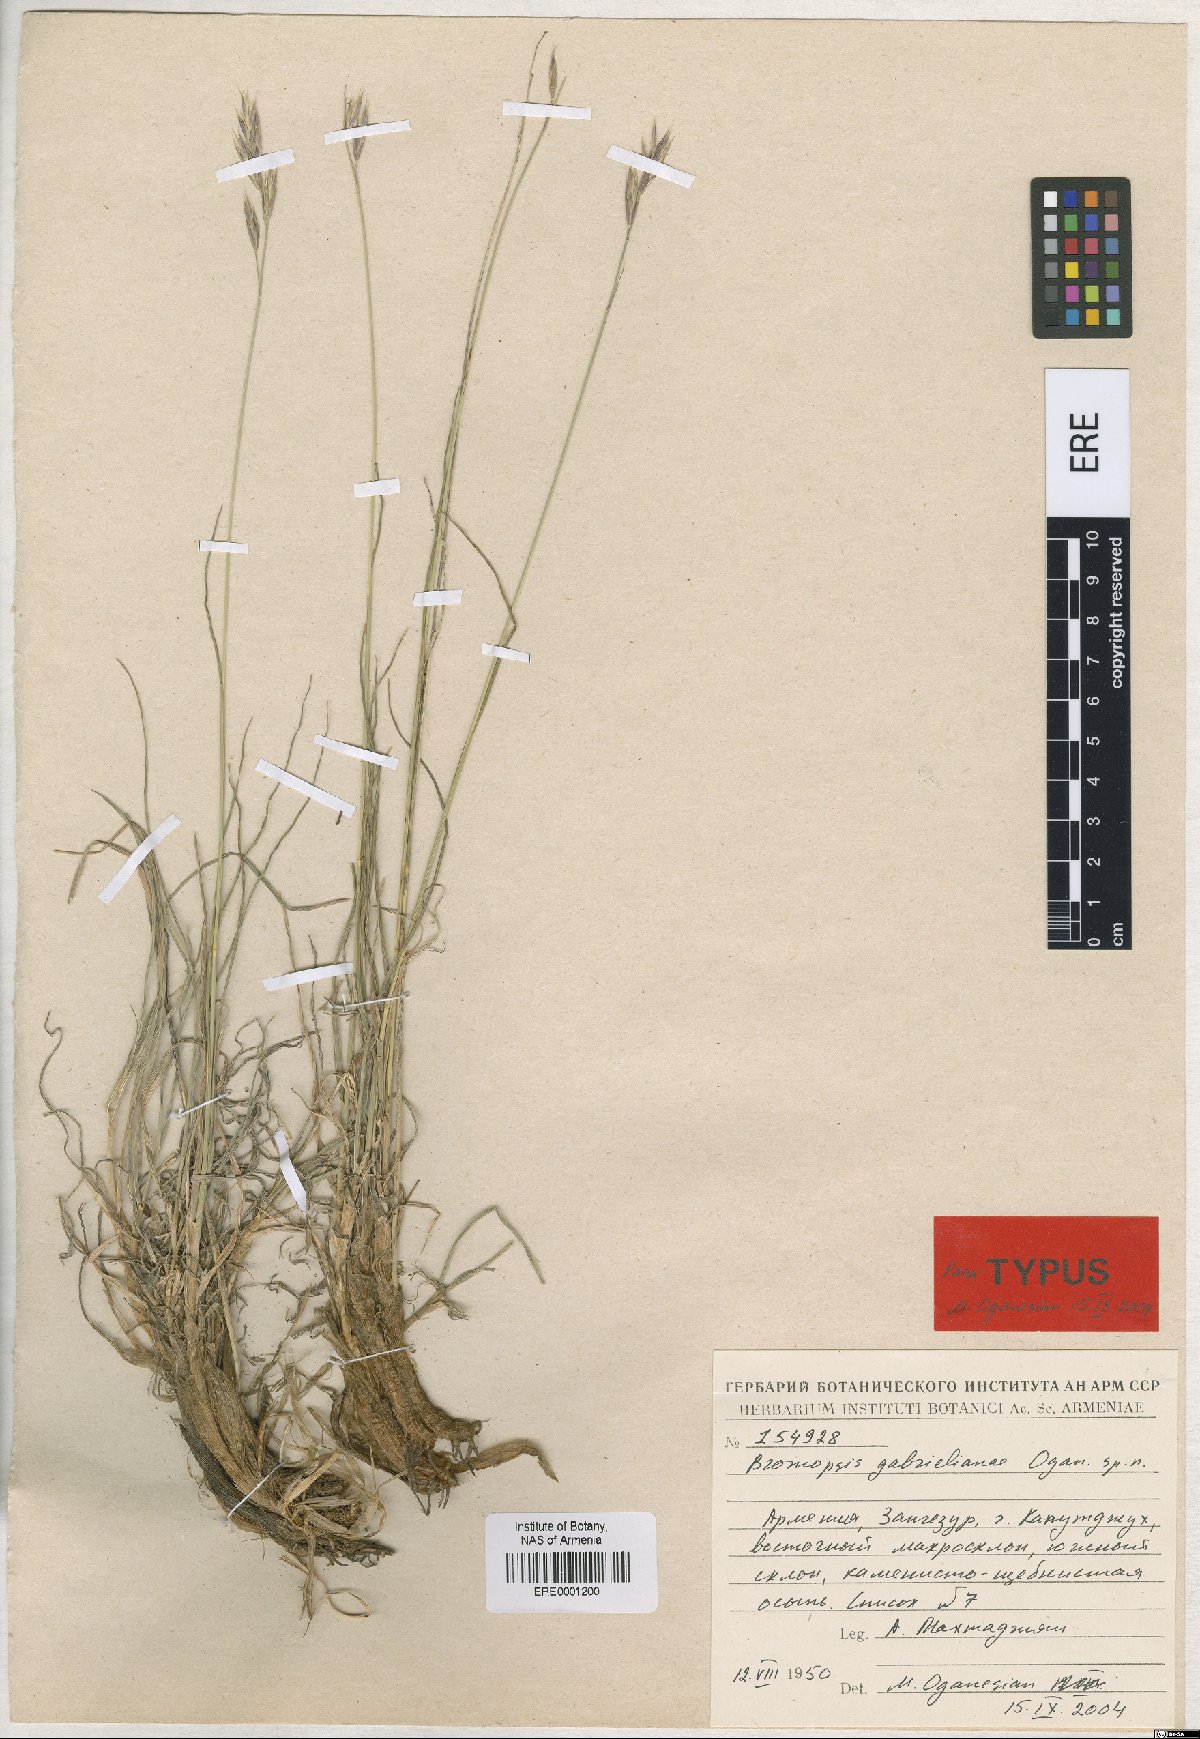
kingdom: Plantae
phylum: Tracheophyta
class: Liliopsida
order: Poales
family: Poaceae
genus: Bromus
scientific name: Bromus tomentosus
